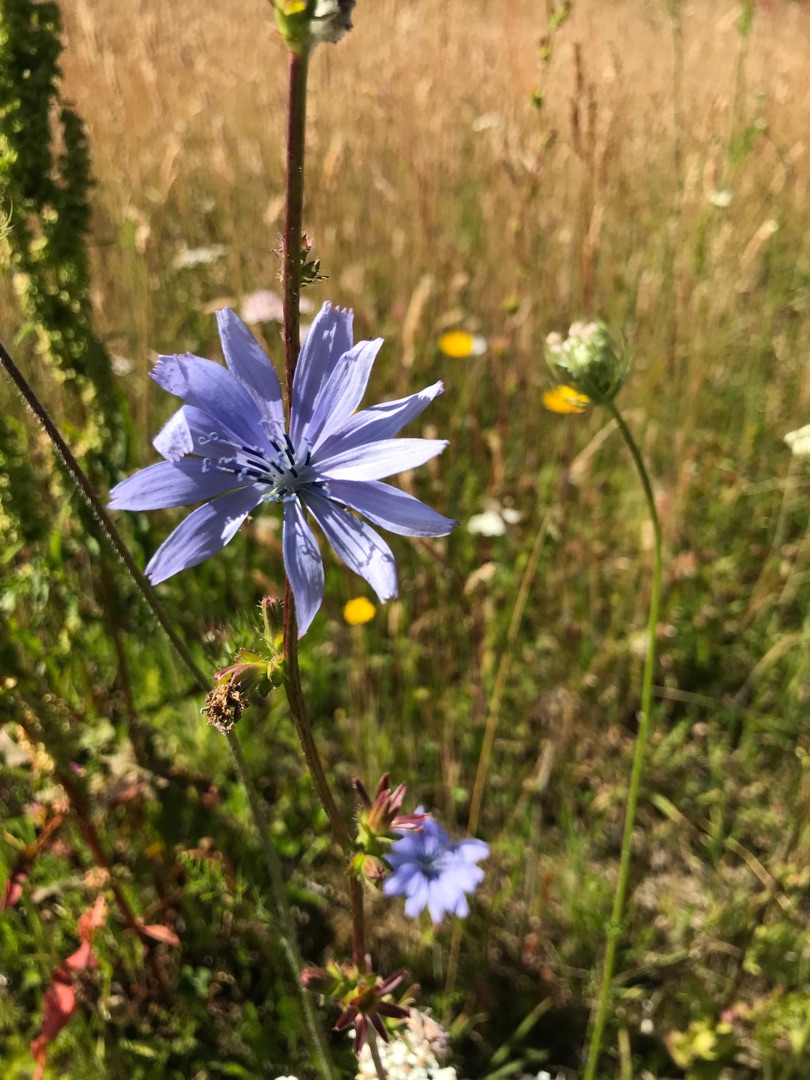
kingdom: Plantae
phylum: Tracheophyta
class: Magnoliopsida
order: Asterales
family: Asteraceae
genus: Cichorium
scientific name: Cichorium intybus
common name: Cikorie
